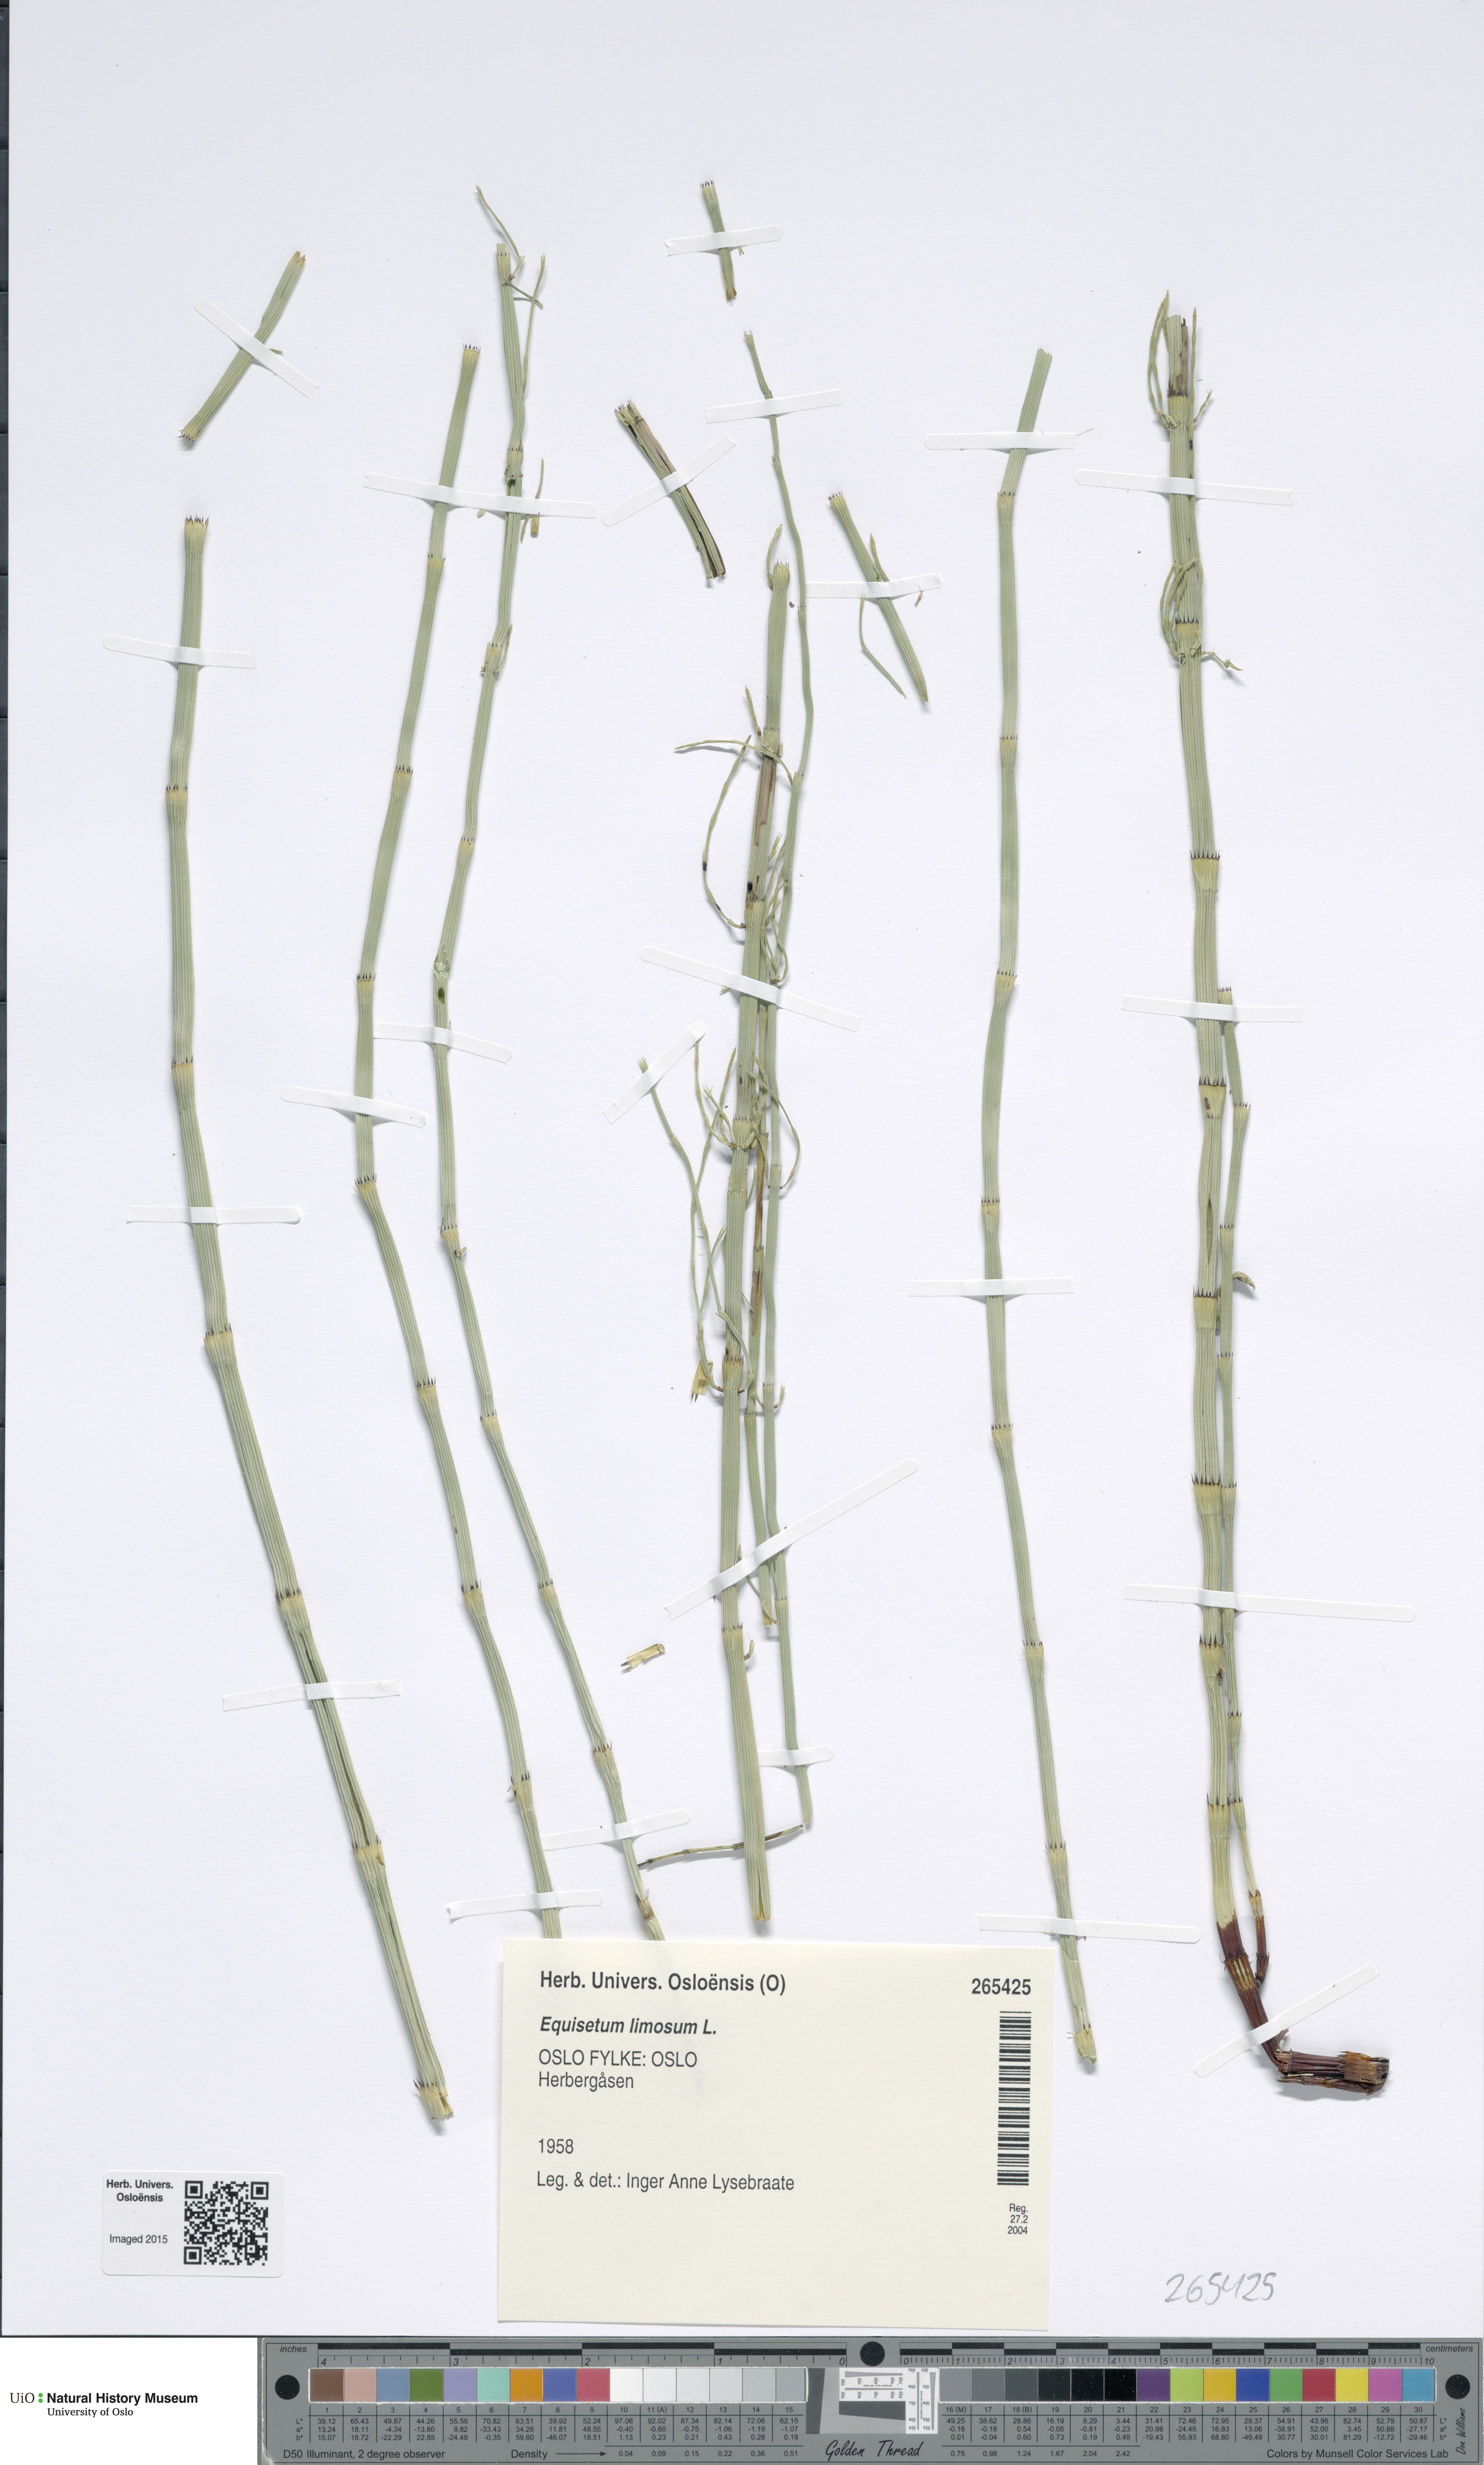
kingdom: Plantae
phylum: Tracheophyta
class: Polypodiopsida
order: Equisetales
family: Equisetaceae
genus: Equisetum
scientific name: Equisetum fluviatile
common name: Water horsetail
